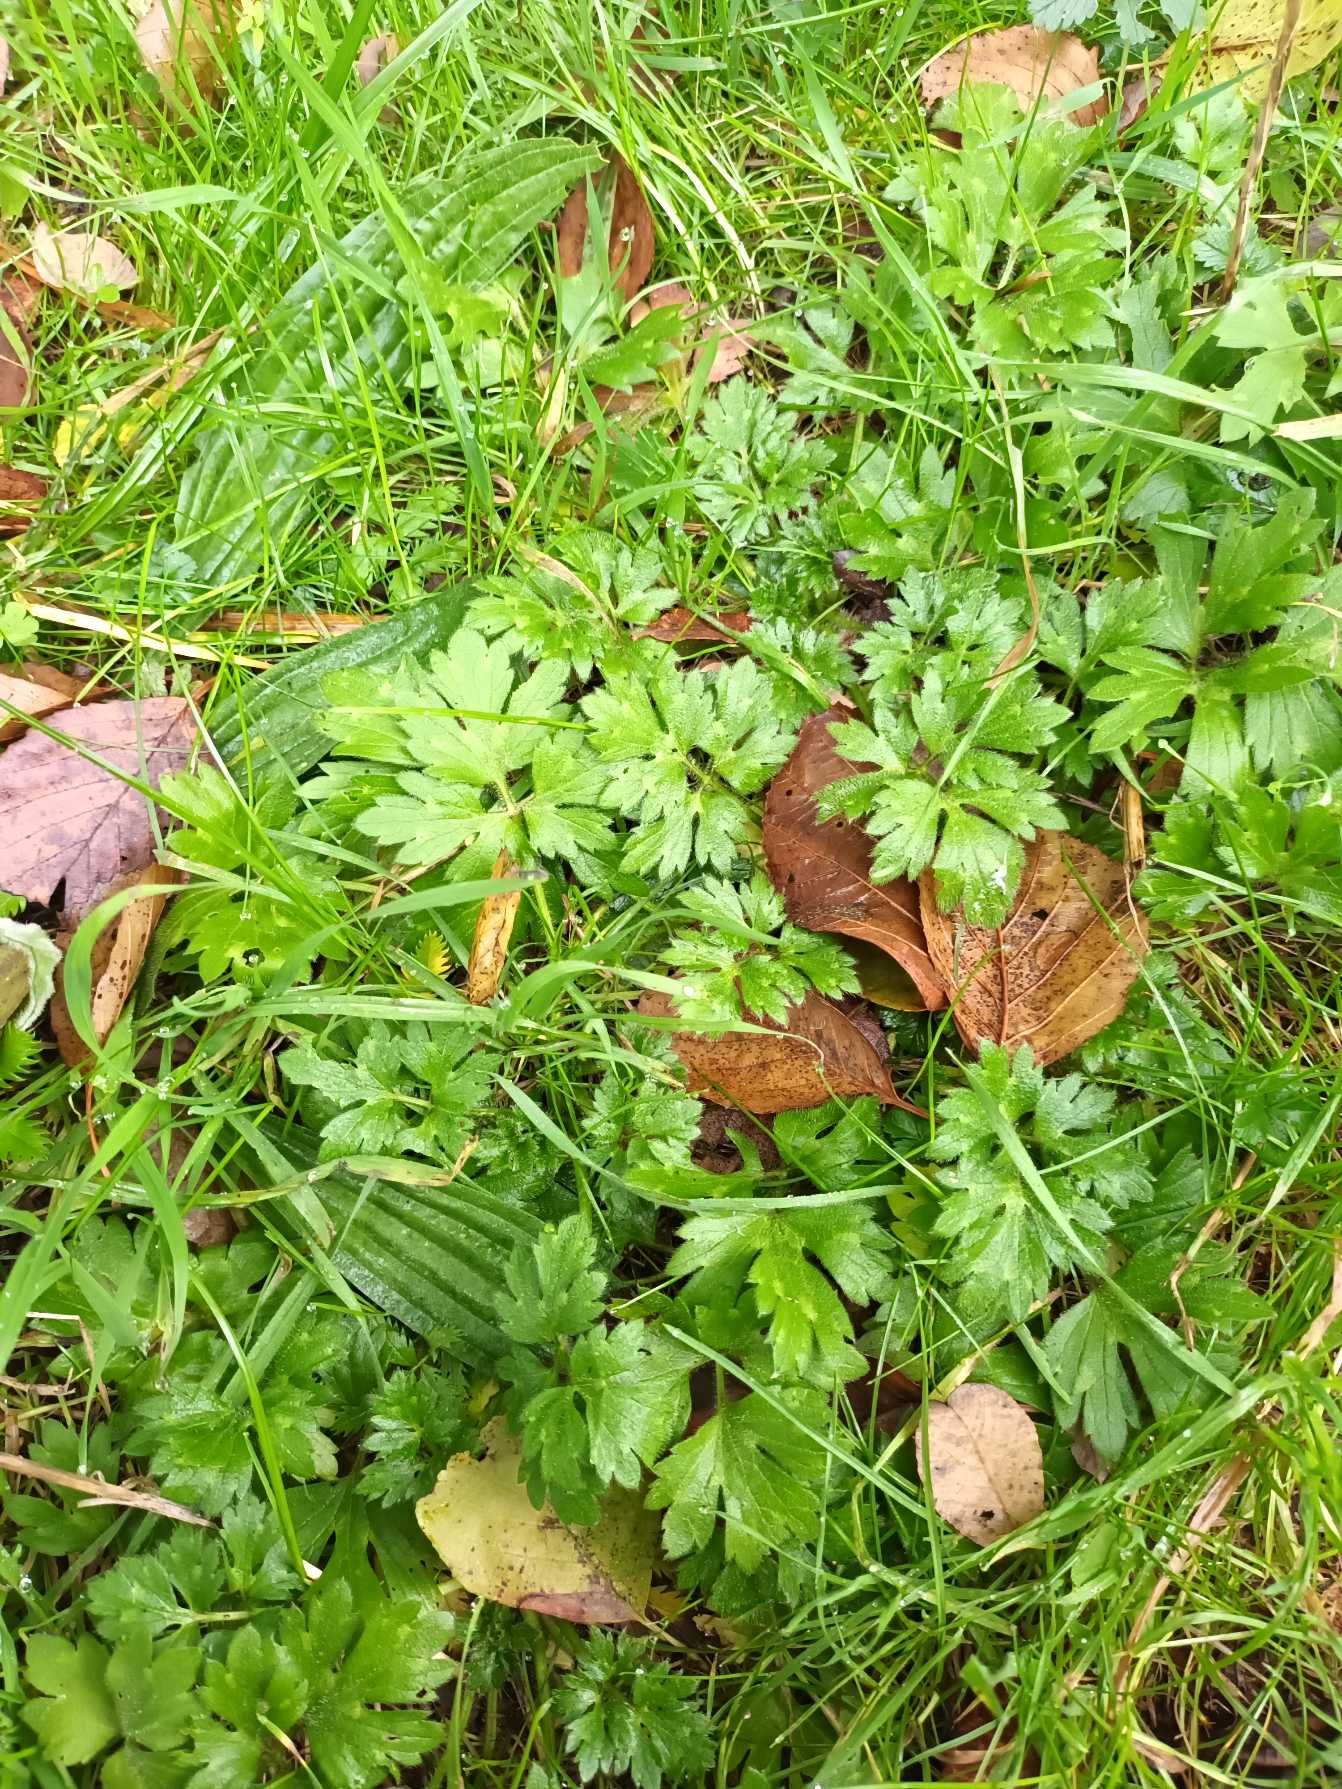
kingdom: Plantae
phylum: Tracheophyta
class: Magnoliopsida
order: Ranunculales
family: Ranunculaceae
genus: Ranunculus
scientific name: Ranunculus repens
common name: Lav ranunkel
